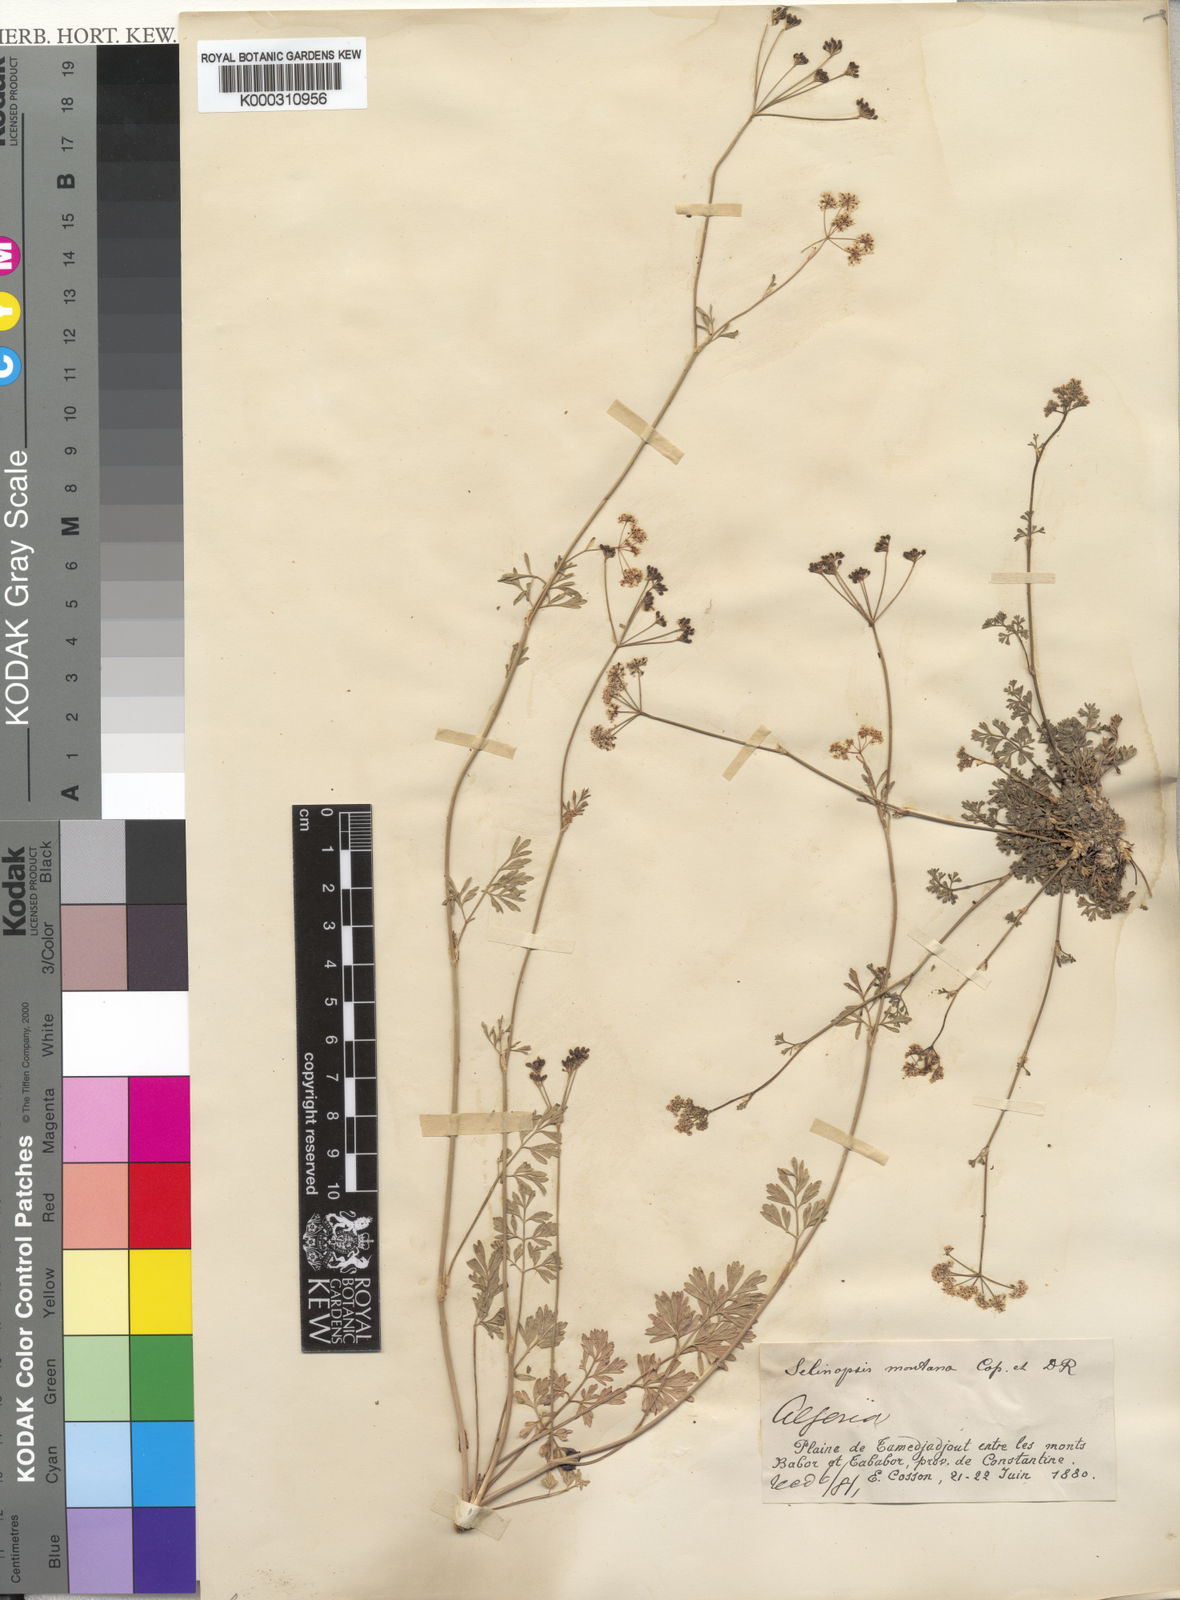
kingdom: Plantae
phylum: Tracheophyta
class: Magnoliopsida
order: Apiales
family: Apiaceae
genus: Perideridia
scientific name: Perideridia gairdneri
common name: False caraway
